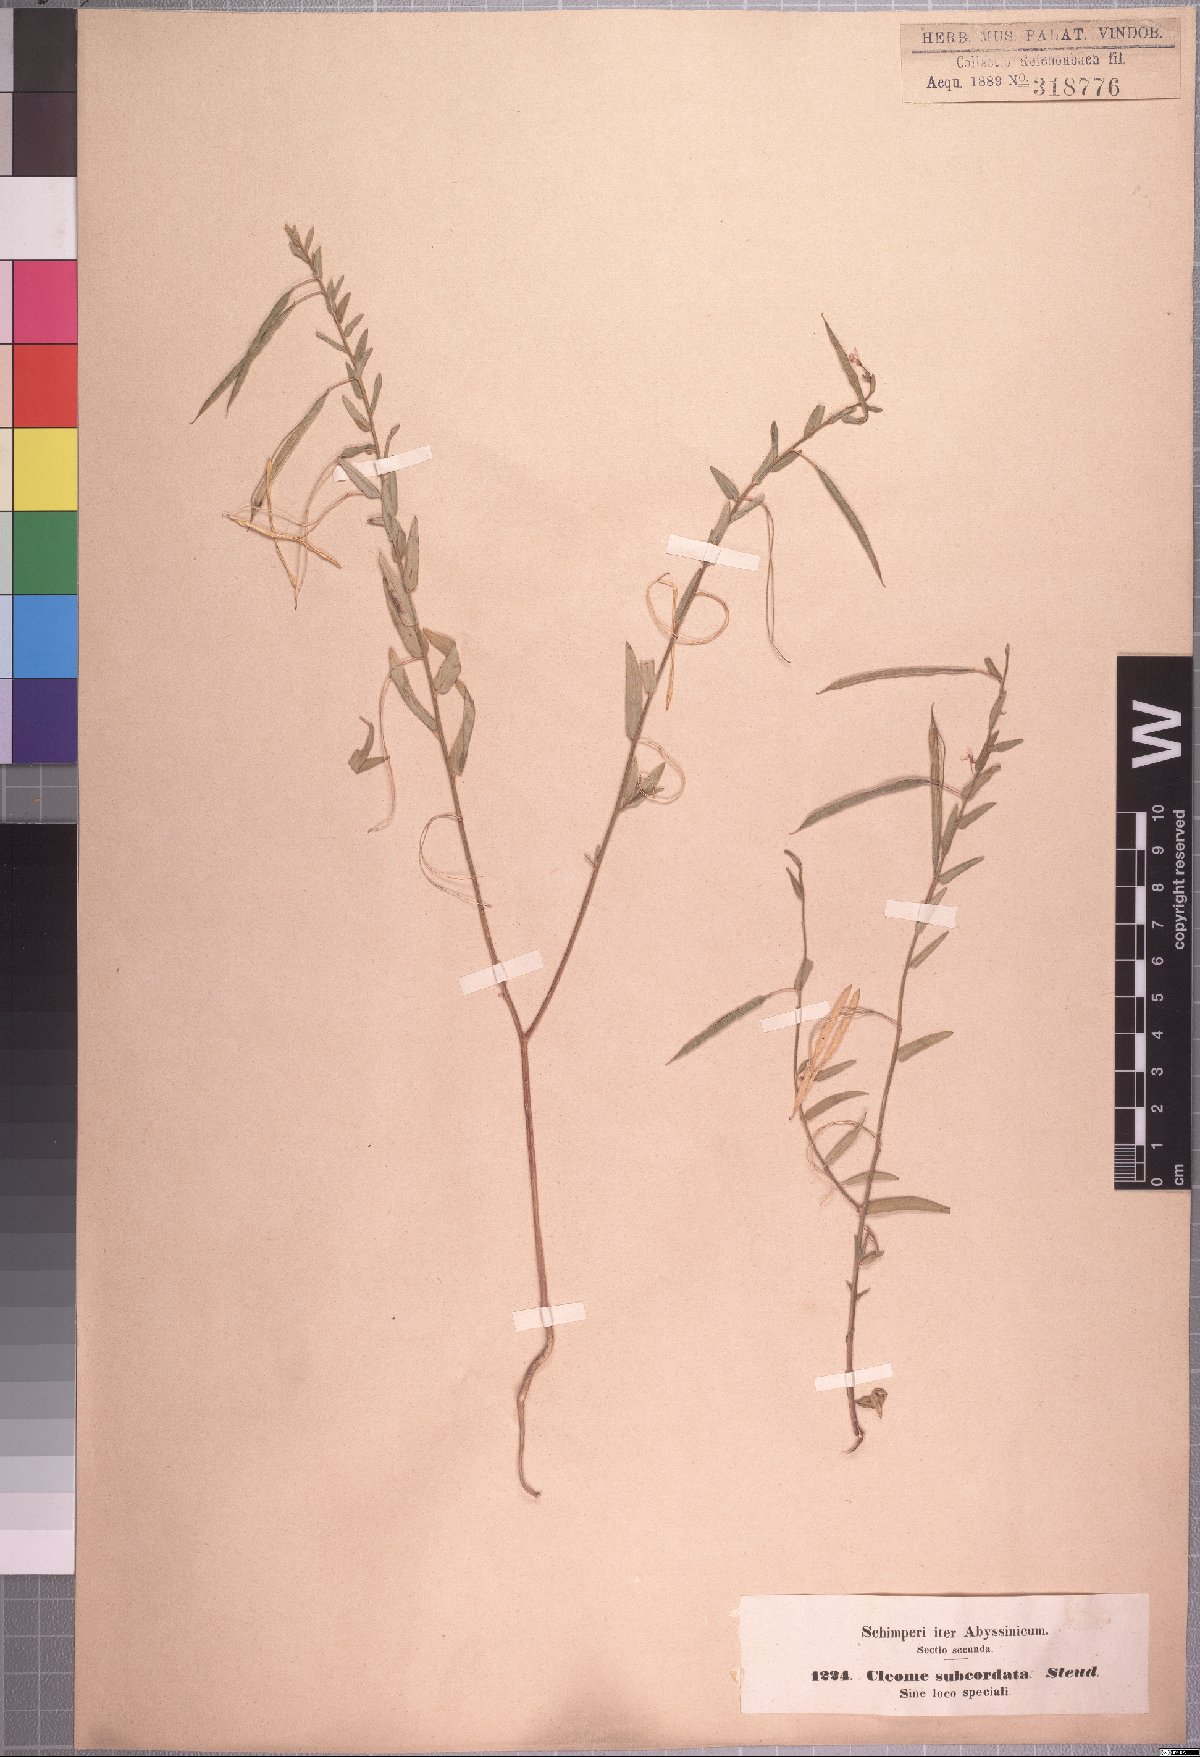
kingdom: Plantae
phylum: Tracheophyta
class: Magnoliopsida
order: Brassicales
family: Cleomaceae
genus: Sieruela
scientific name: Sieruela monophylla
